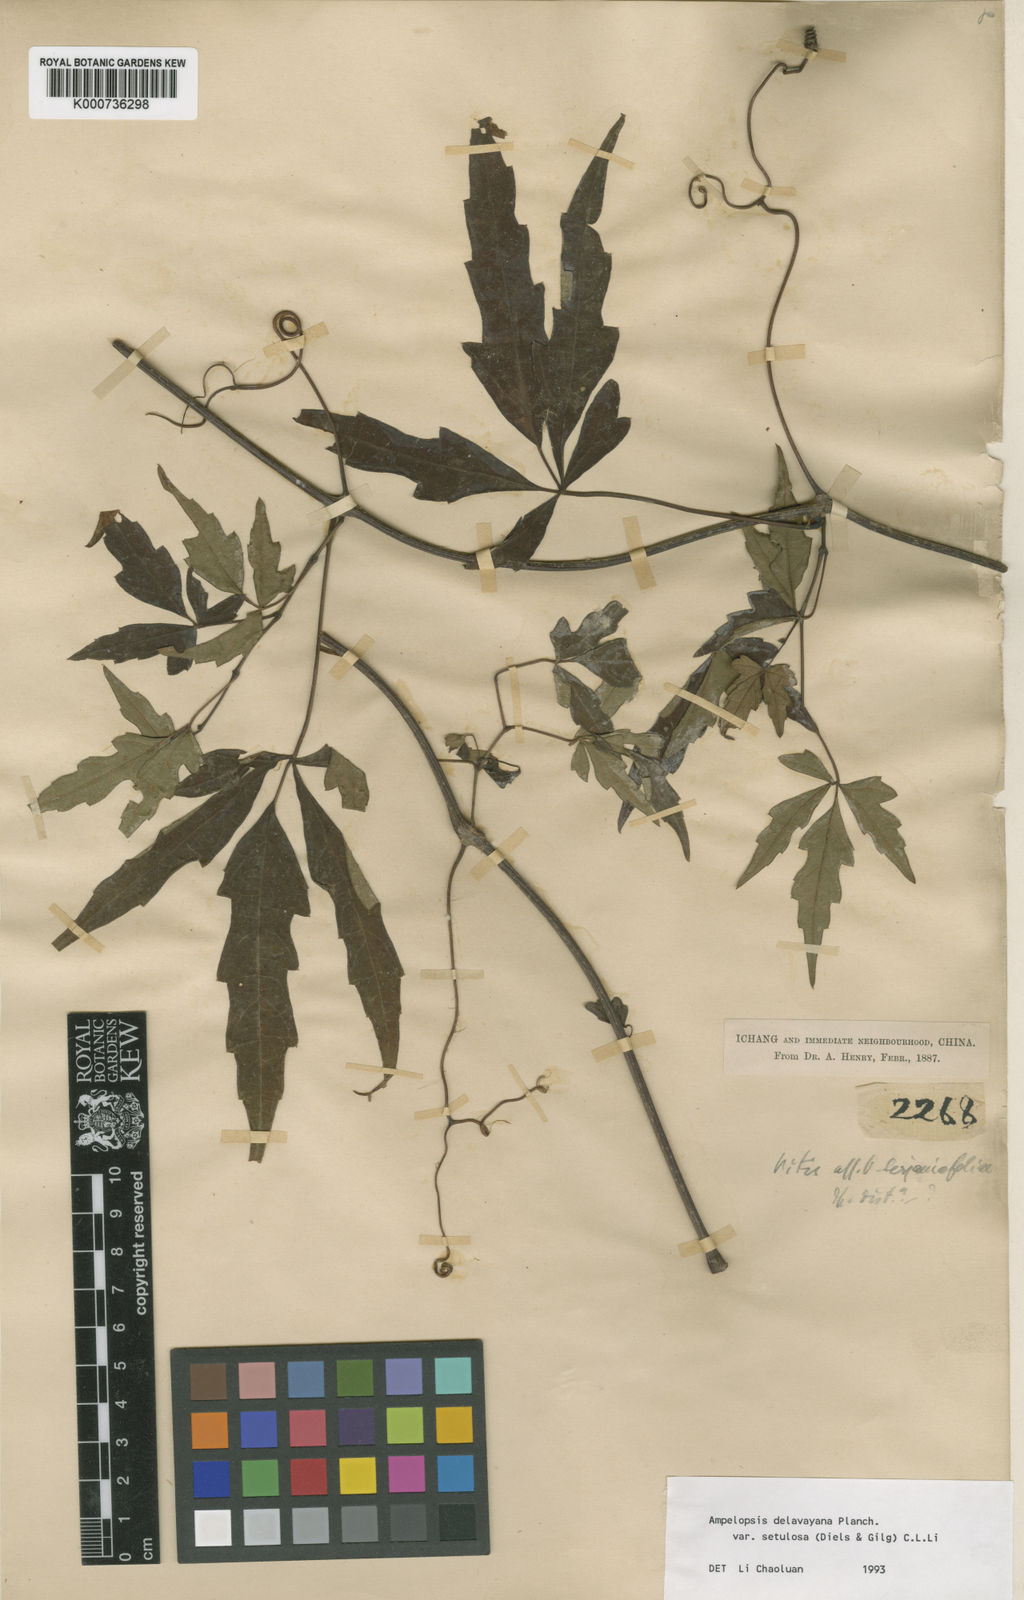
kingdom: Plantae
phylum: Tracheophyta
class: Magnoliopsida
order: Vitales
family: Vitaceae
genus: Ampelopsis
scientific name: Ampelopsis delavayana
